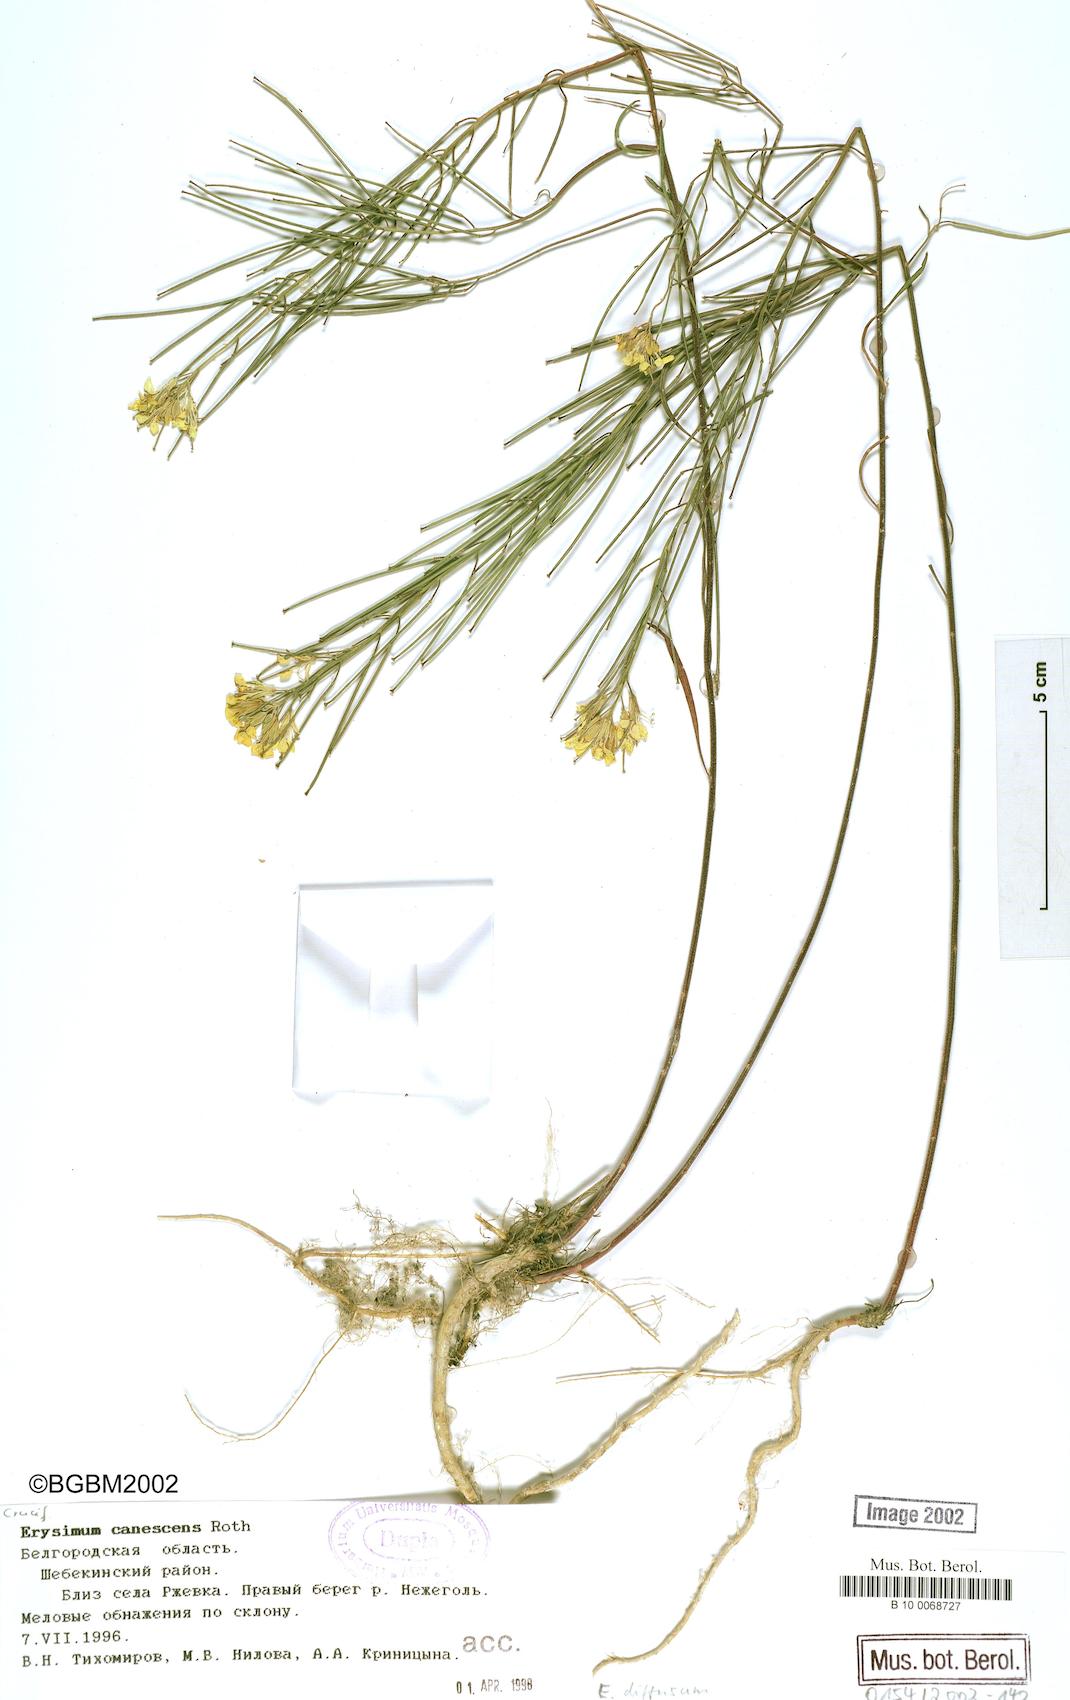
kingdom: Plantae
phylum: Tracheophyta
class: Magnoliopsida
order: Brassicales
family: Brassicaceae
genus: Erysimum
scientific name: Erysimum diffusum
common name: Diffuse wallflower
